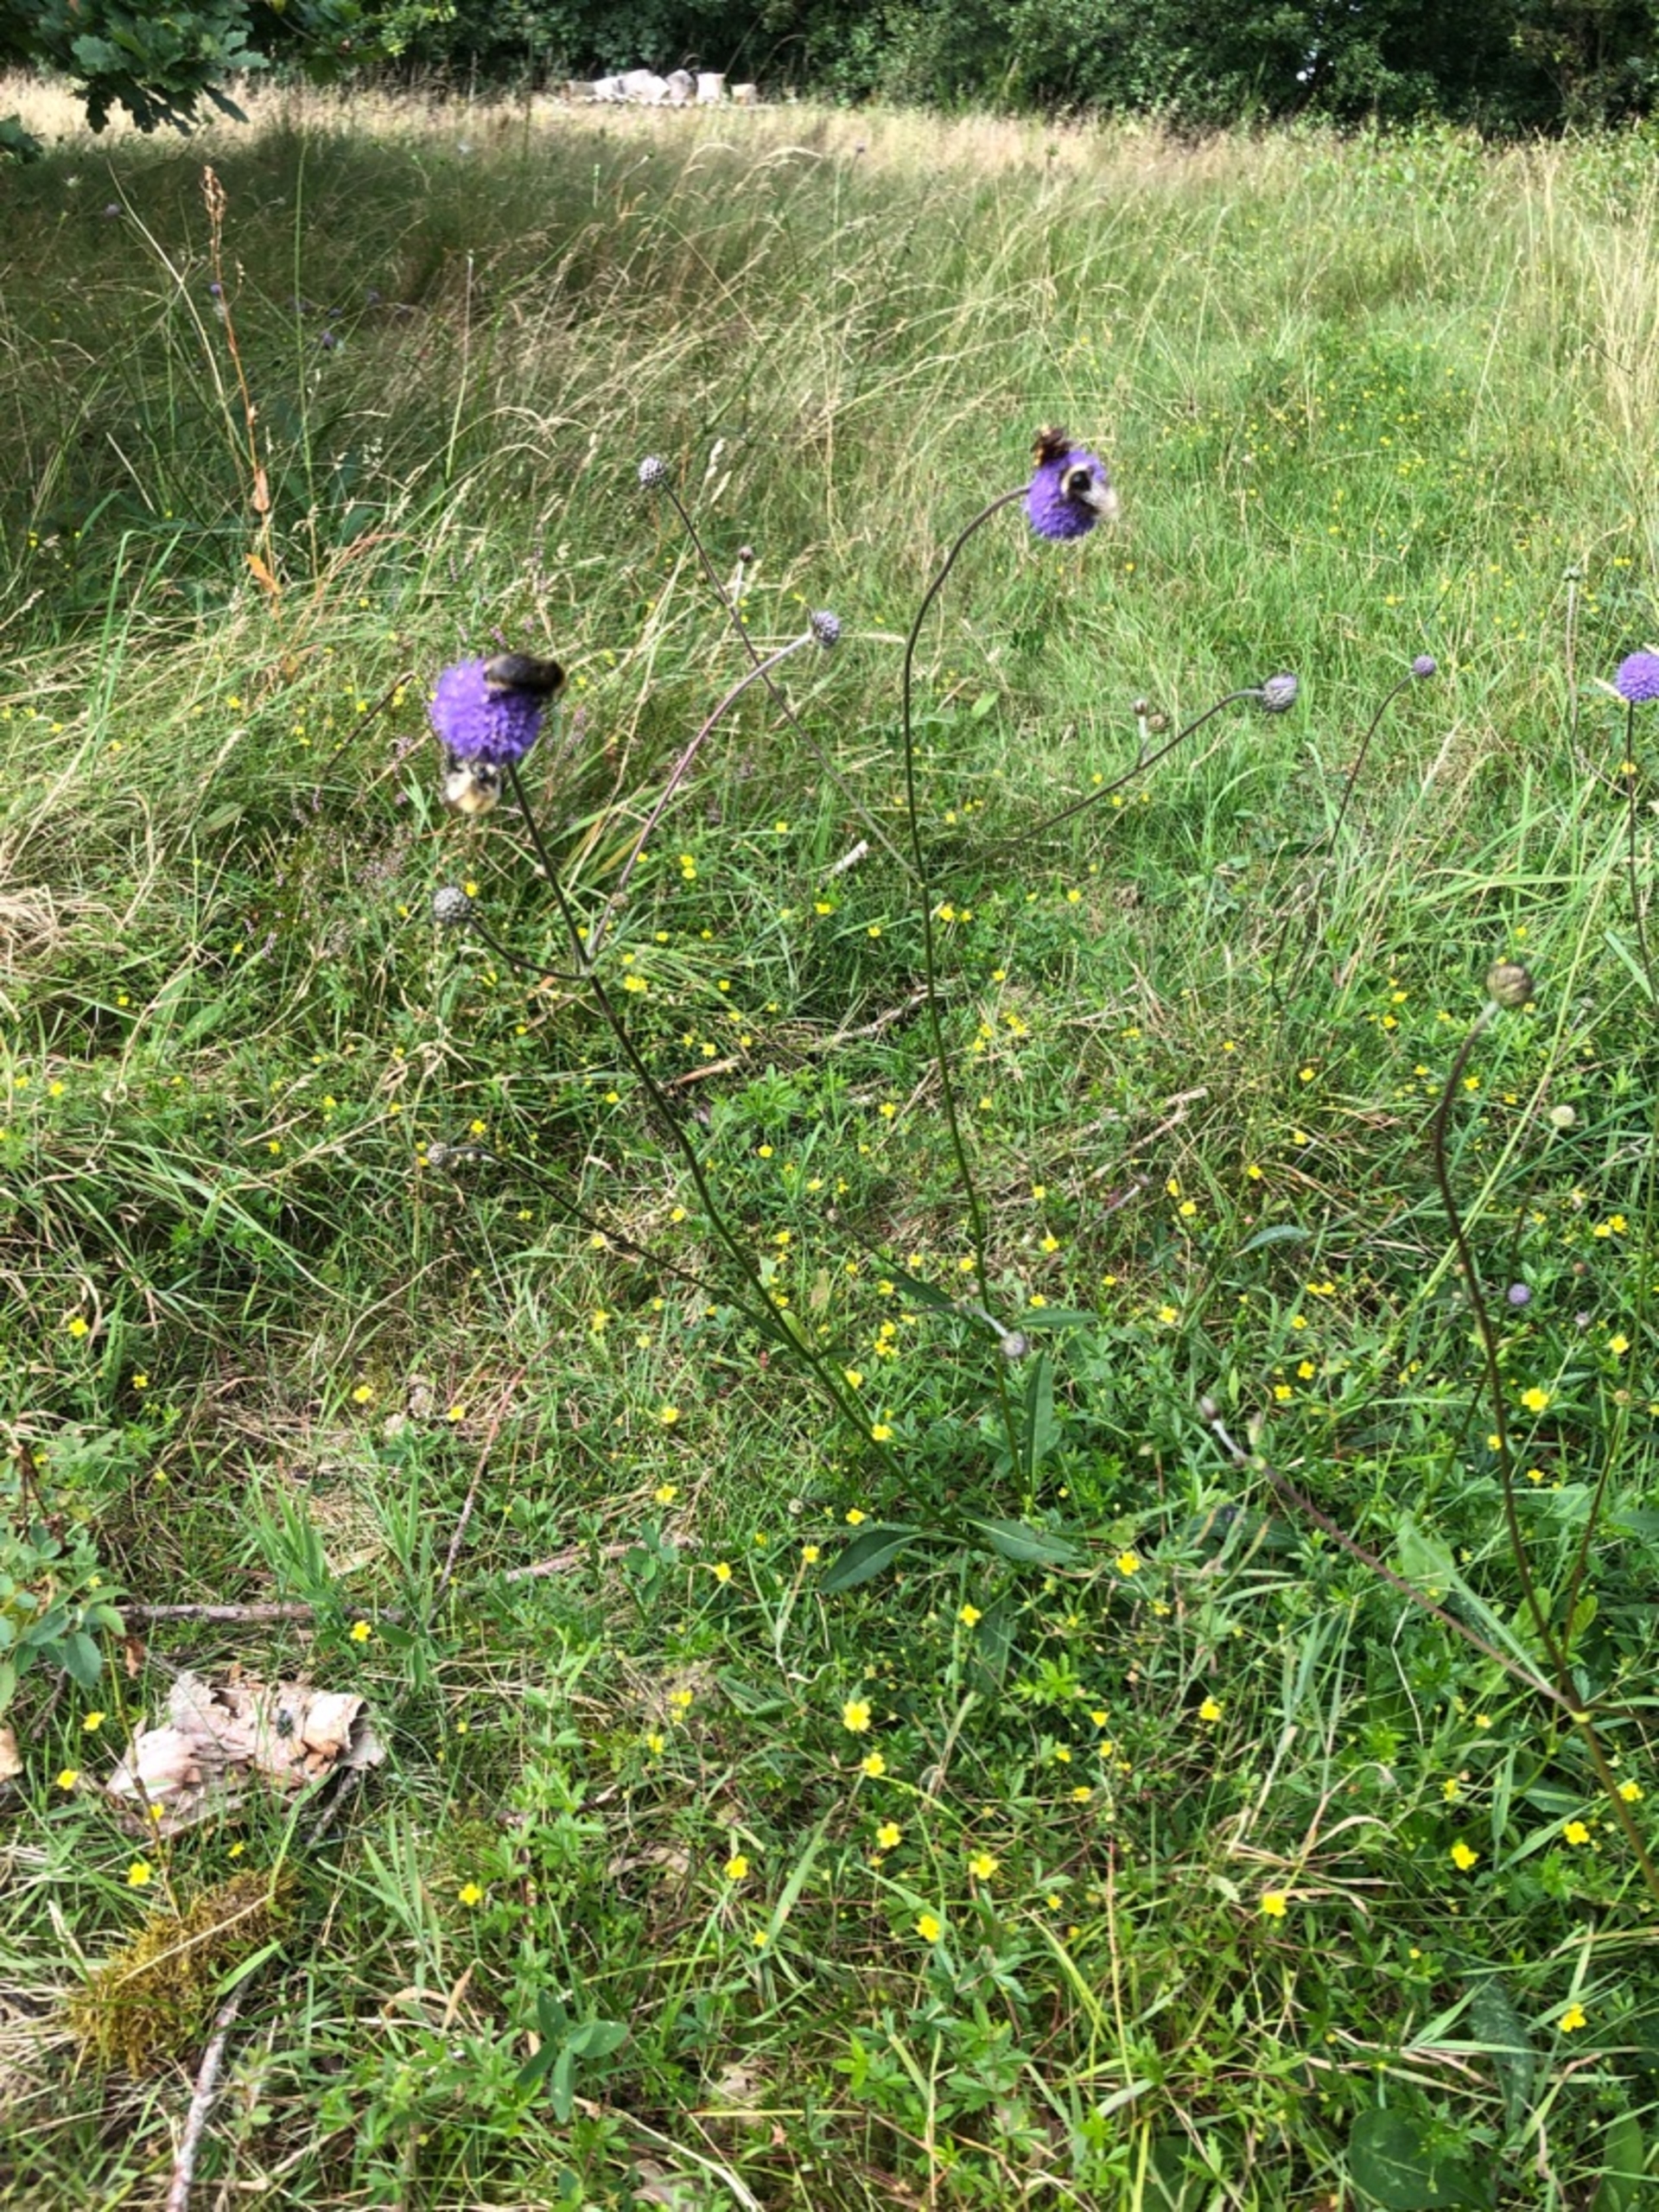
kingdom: Plantae
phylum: Tracheophyta
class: Magnoliopsida
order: Dipsacales
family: Caprifoliaceae
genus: Succisa
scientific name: Succisa pratensis
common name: Djævelsbid
